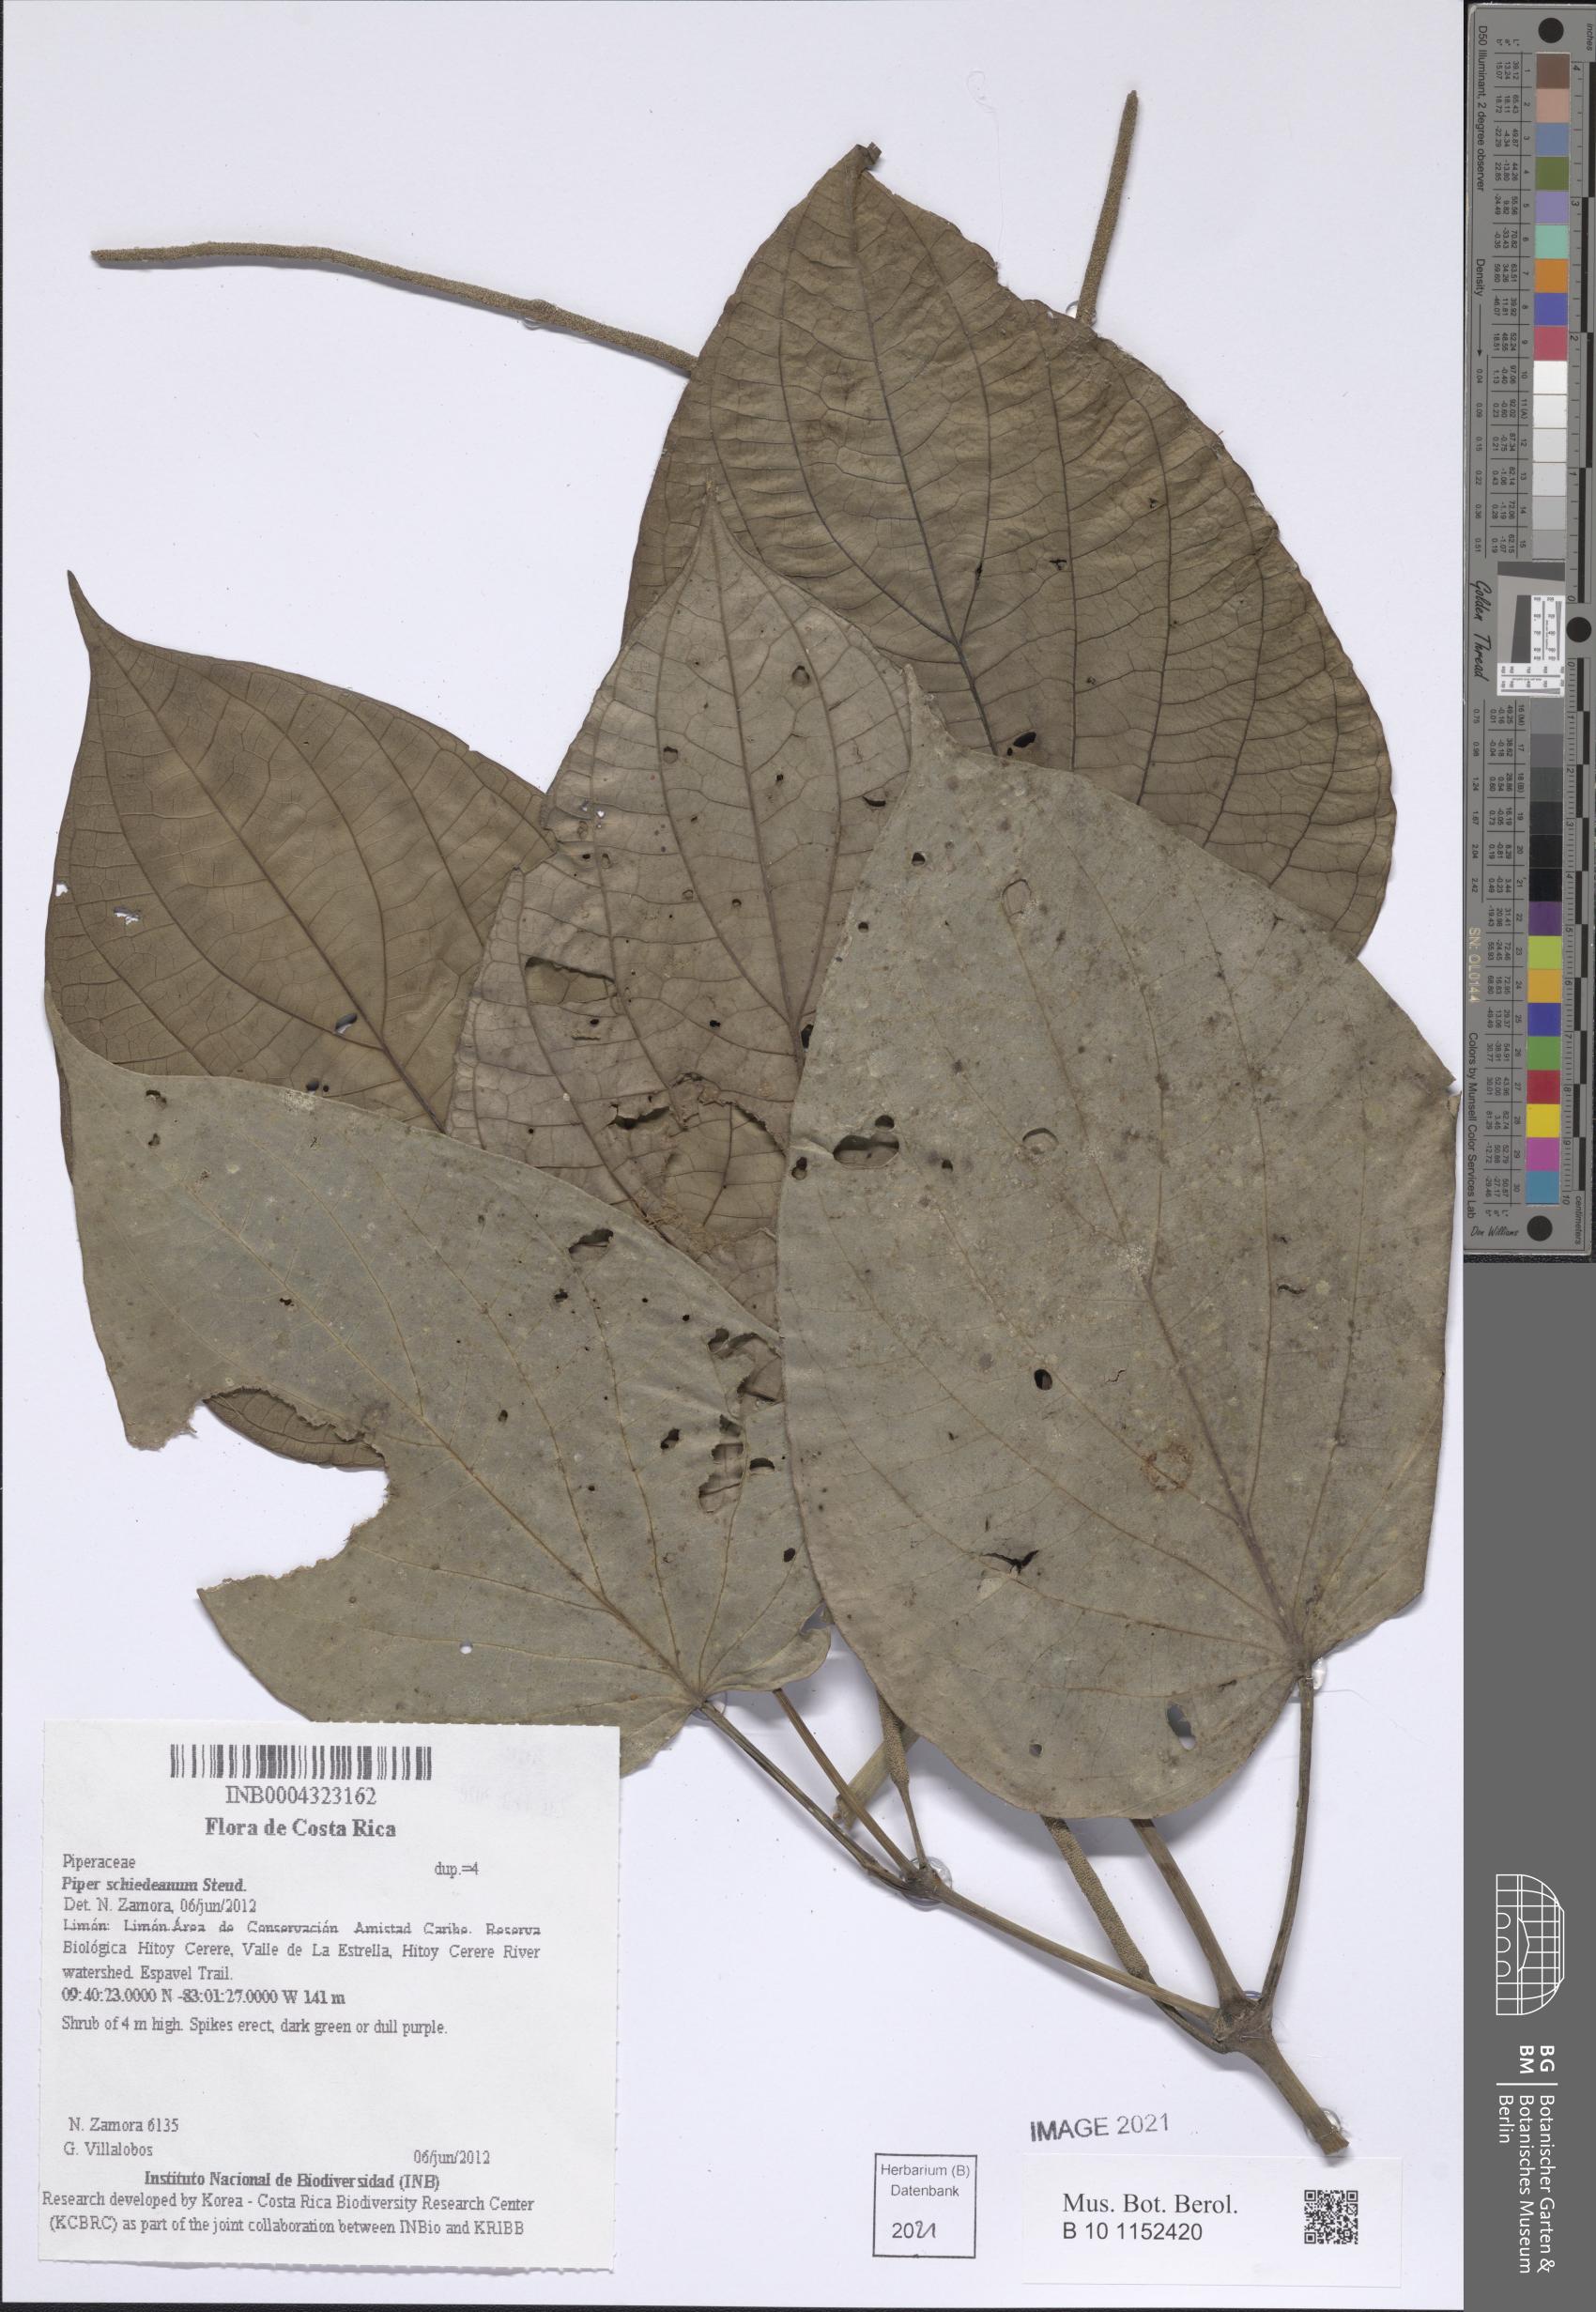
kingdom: Plantae
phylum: Tracheophyta
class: Magnoliopsida
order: Piperales
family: Piperaceae
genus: Piper
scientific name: Piper schiedeanum
